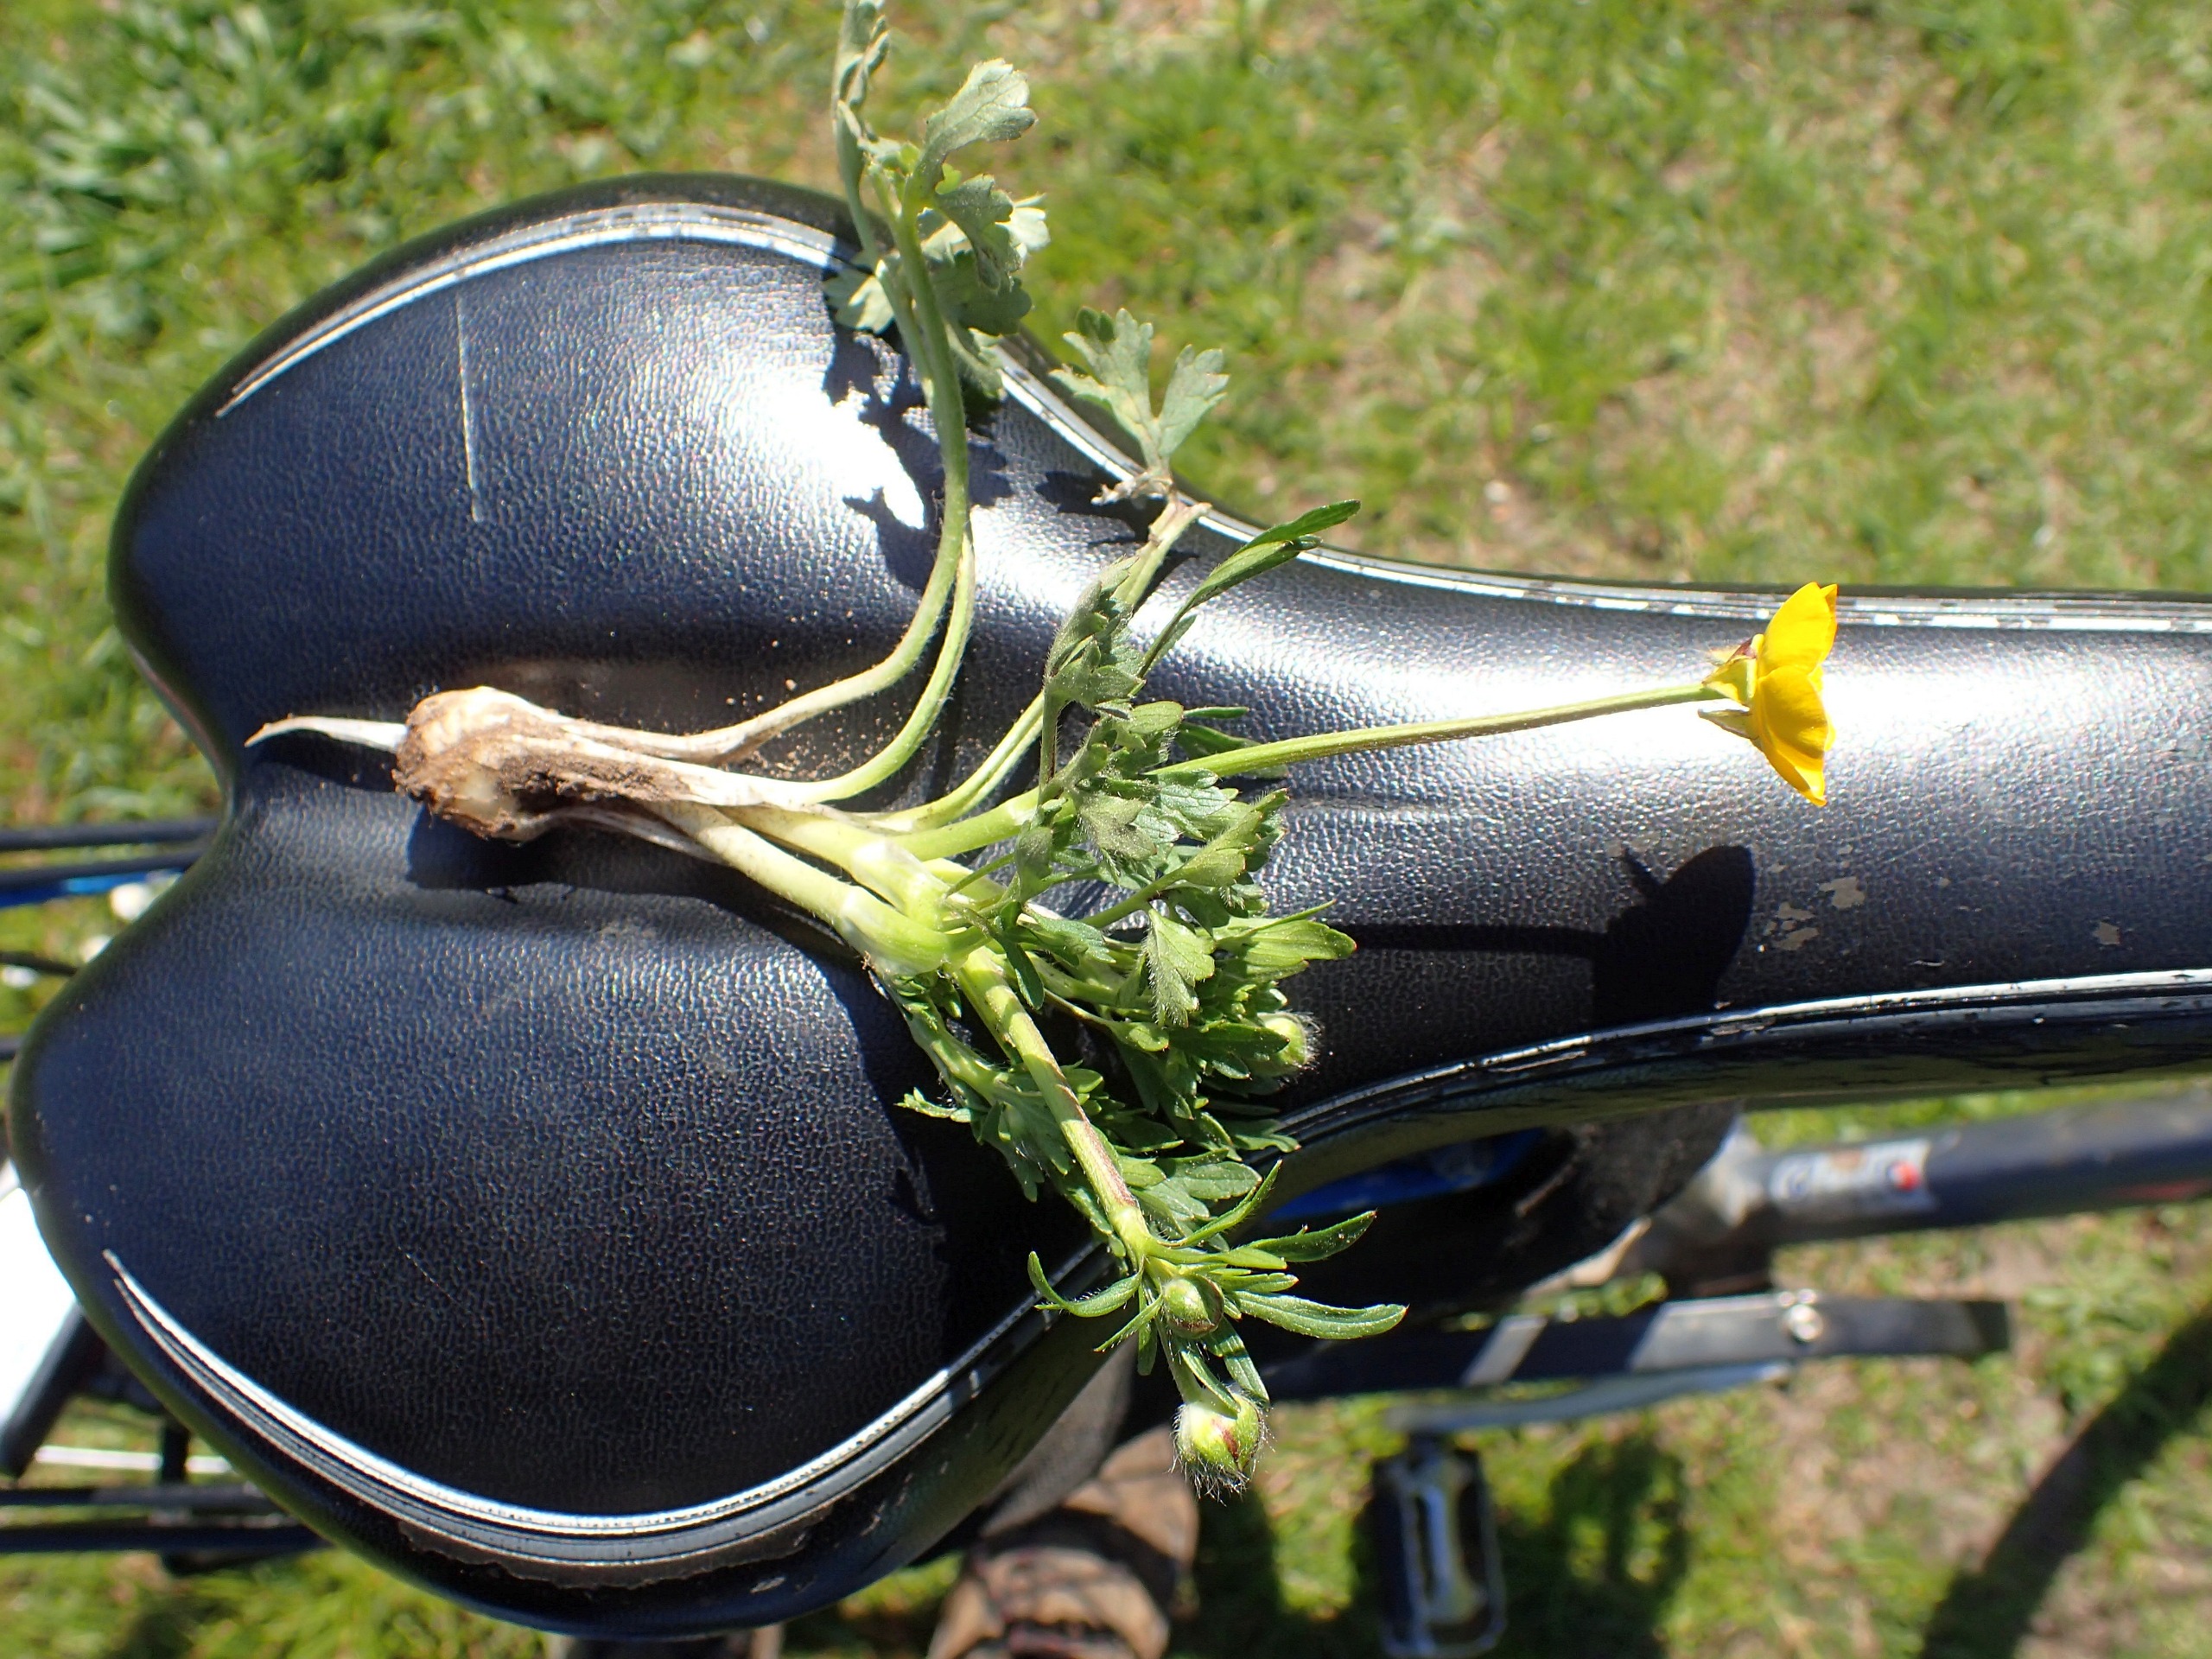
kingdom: Plantae
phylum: Tracheophyta
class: Magnoliopsida
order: Ranunculales
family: Ranunculaceae
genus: Ranunculus
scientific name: Ranunculus bulbosus
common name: Knold-ranunkel
